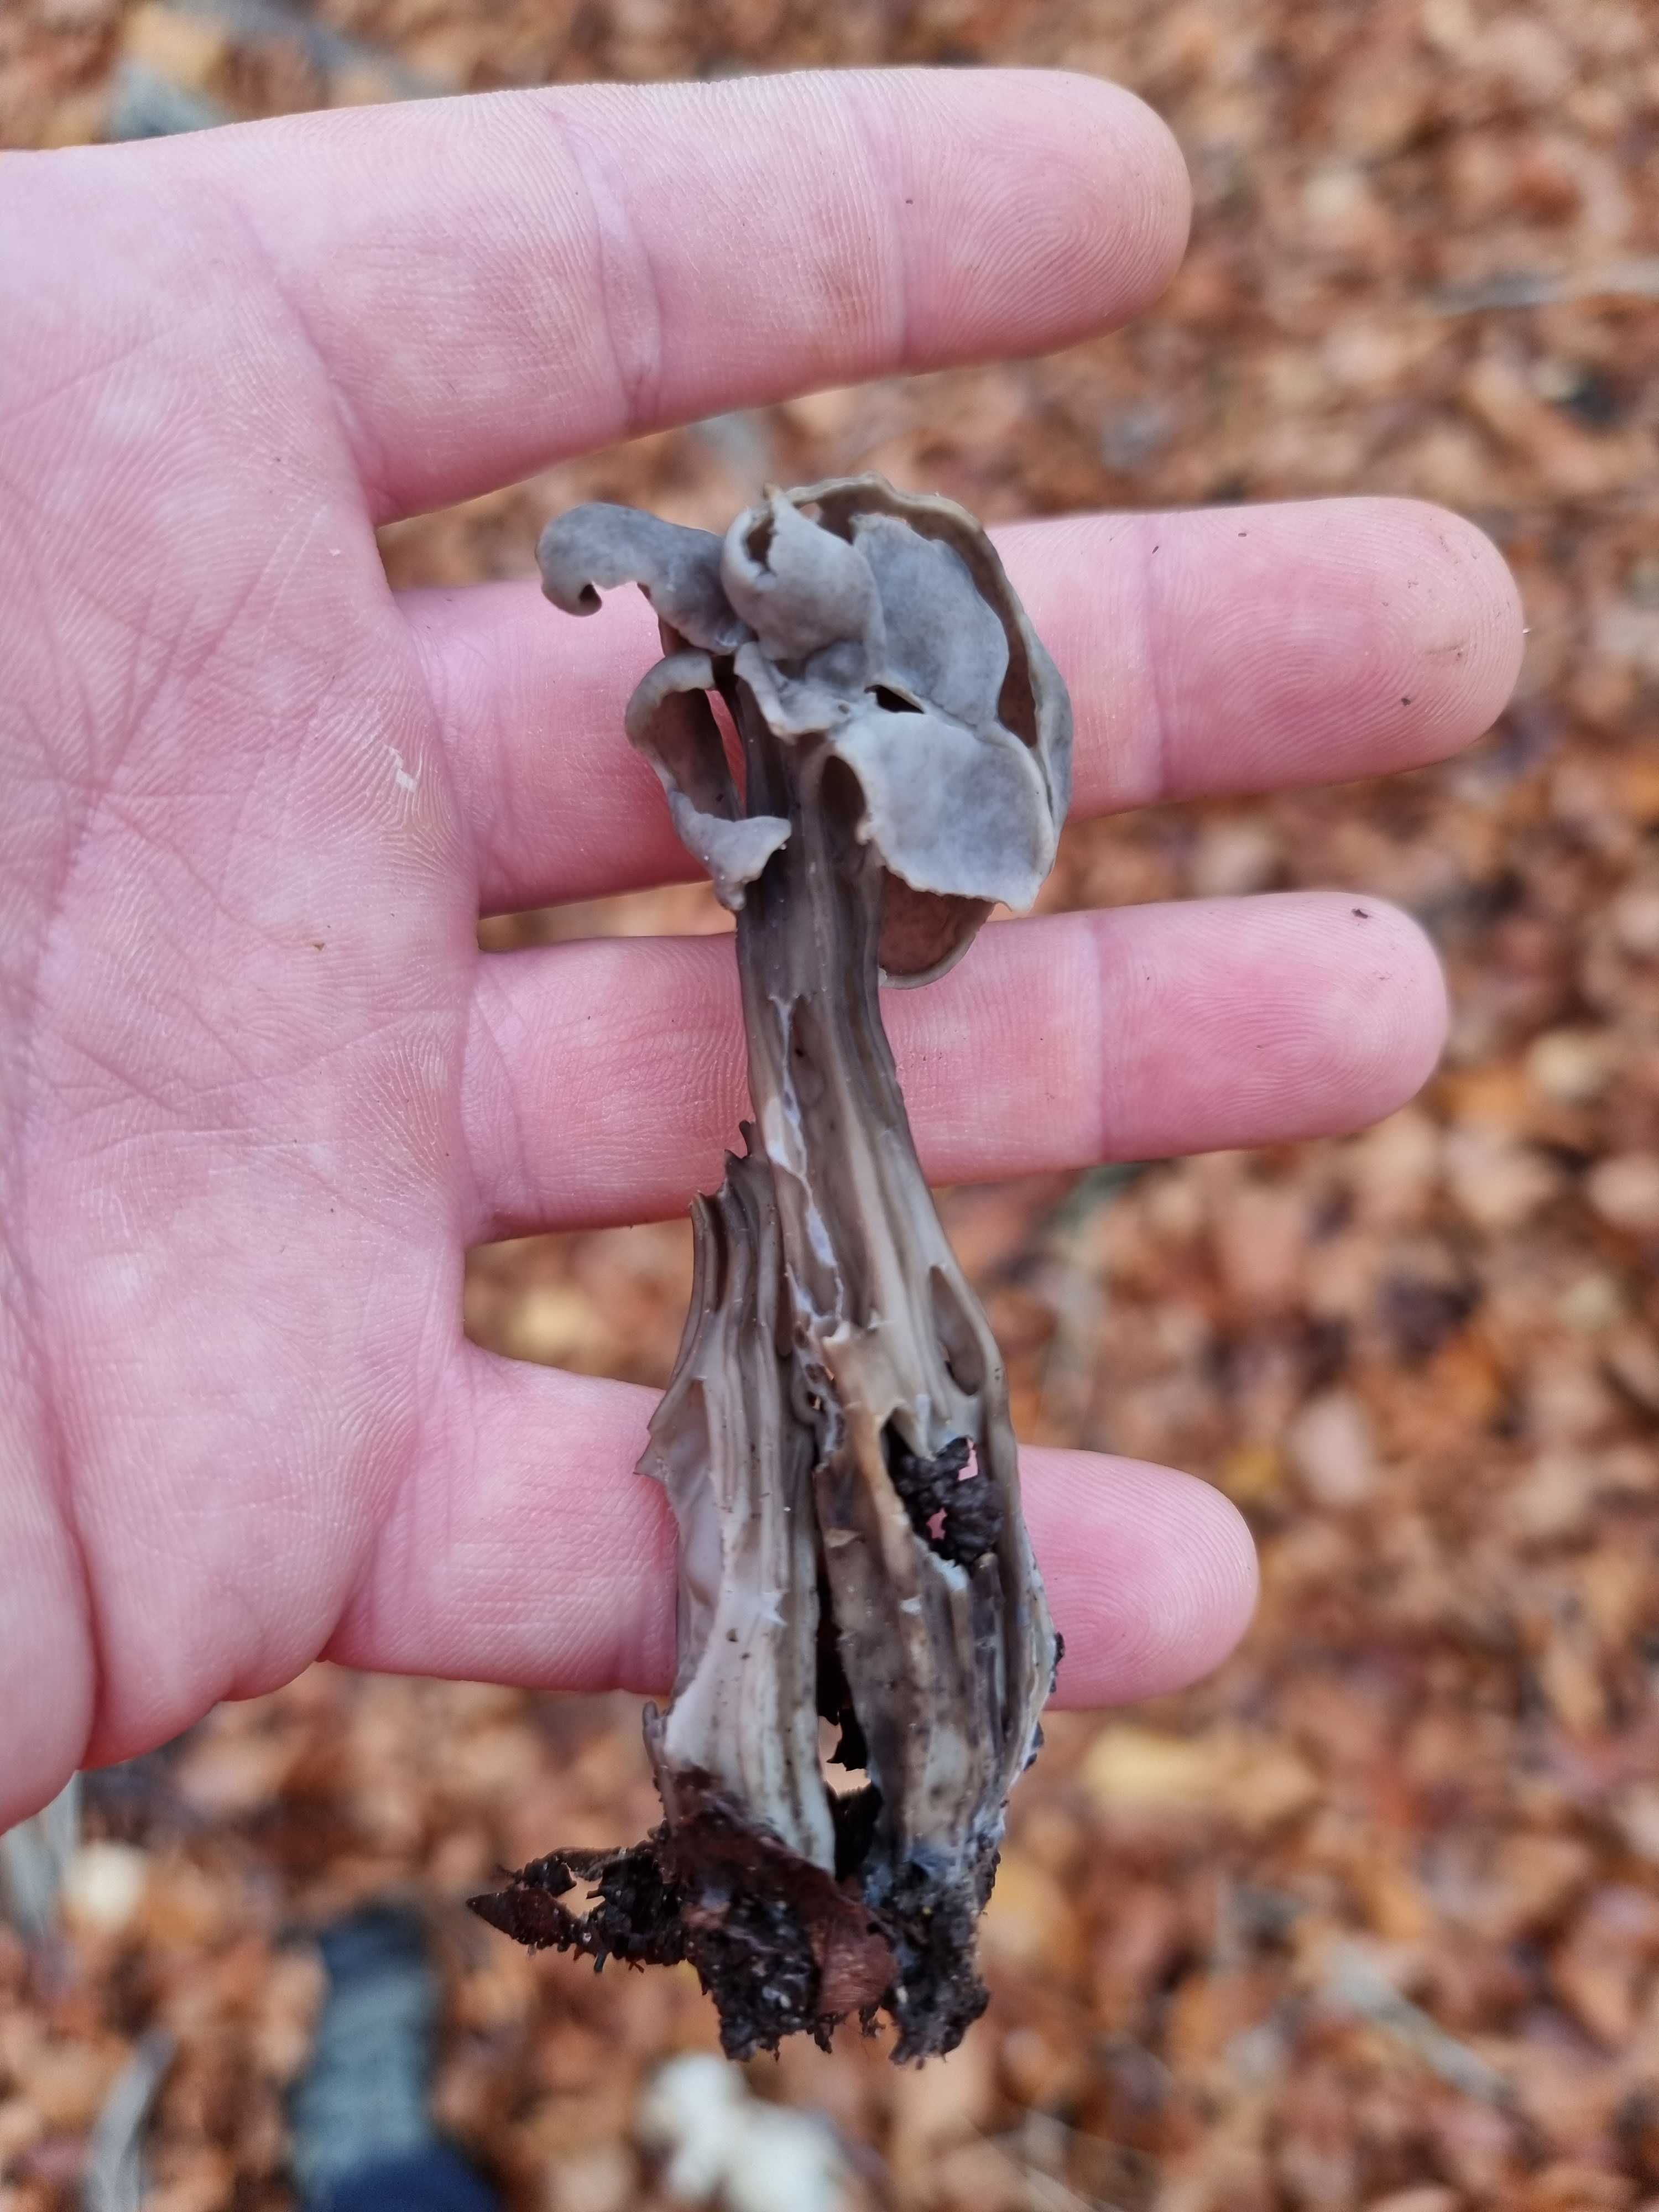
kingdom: Fungi
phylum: Ascomycota
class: Pezizomycetes
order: Pezizales
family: Helvellaceae
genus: Helvella
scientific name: Helvella lacunosa
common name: grubet foldhat
